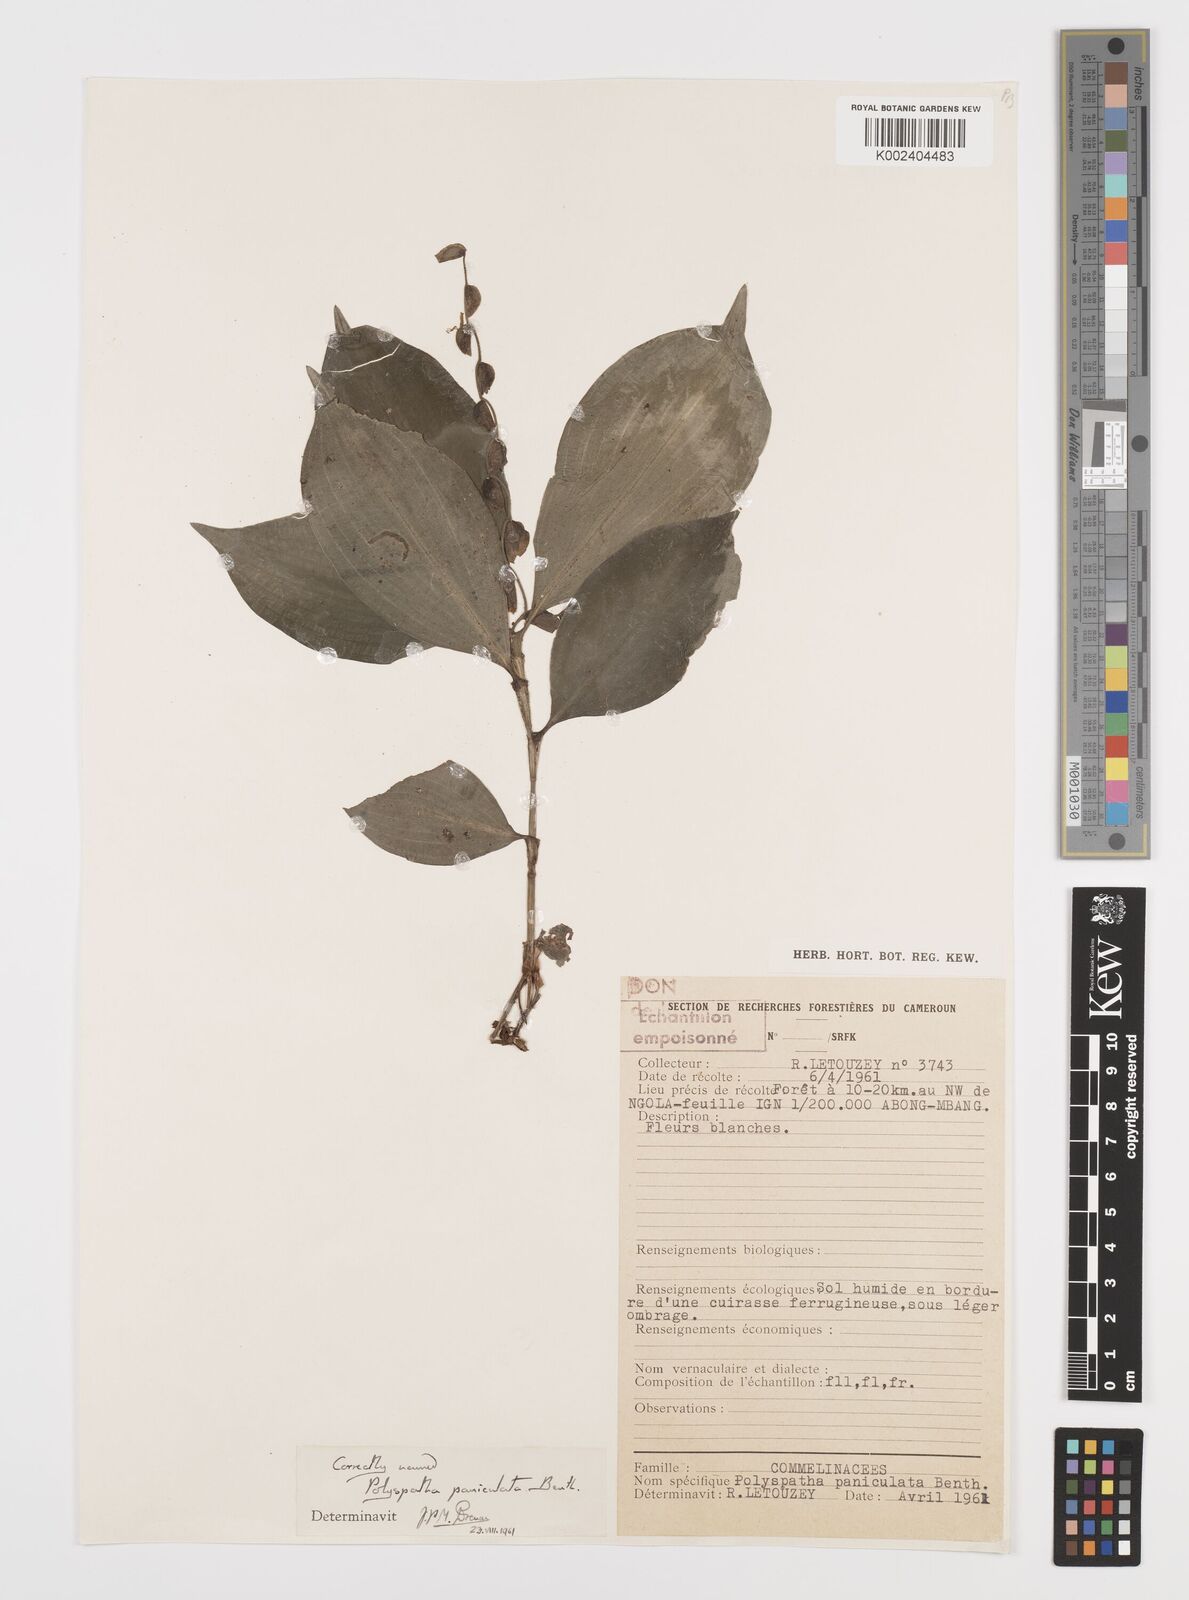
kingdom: Plantae
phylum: Tracheophyta
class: Liliopsida
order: Commelinales
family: Commelinaceae
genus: Polyspatha
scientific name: Polyspatha paniculata
